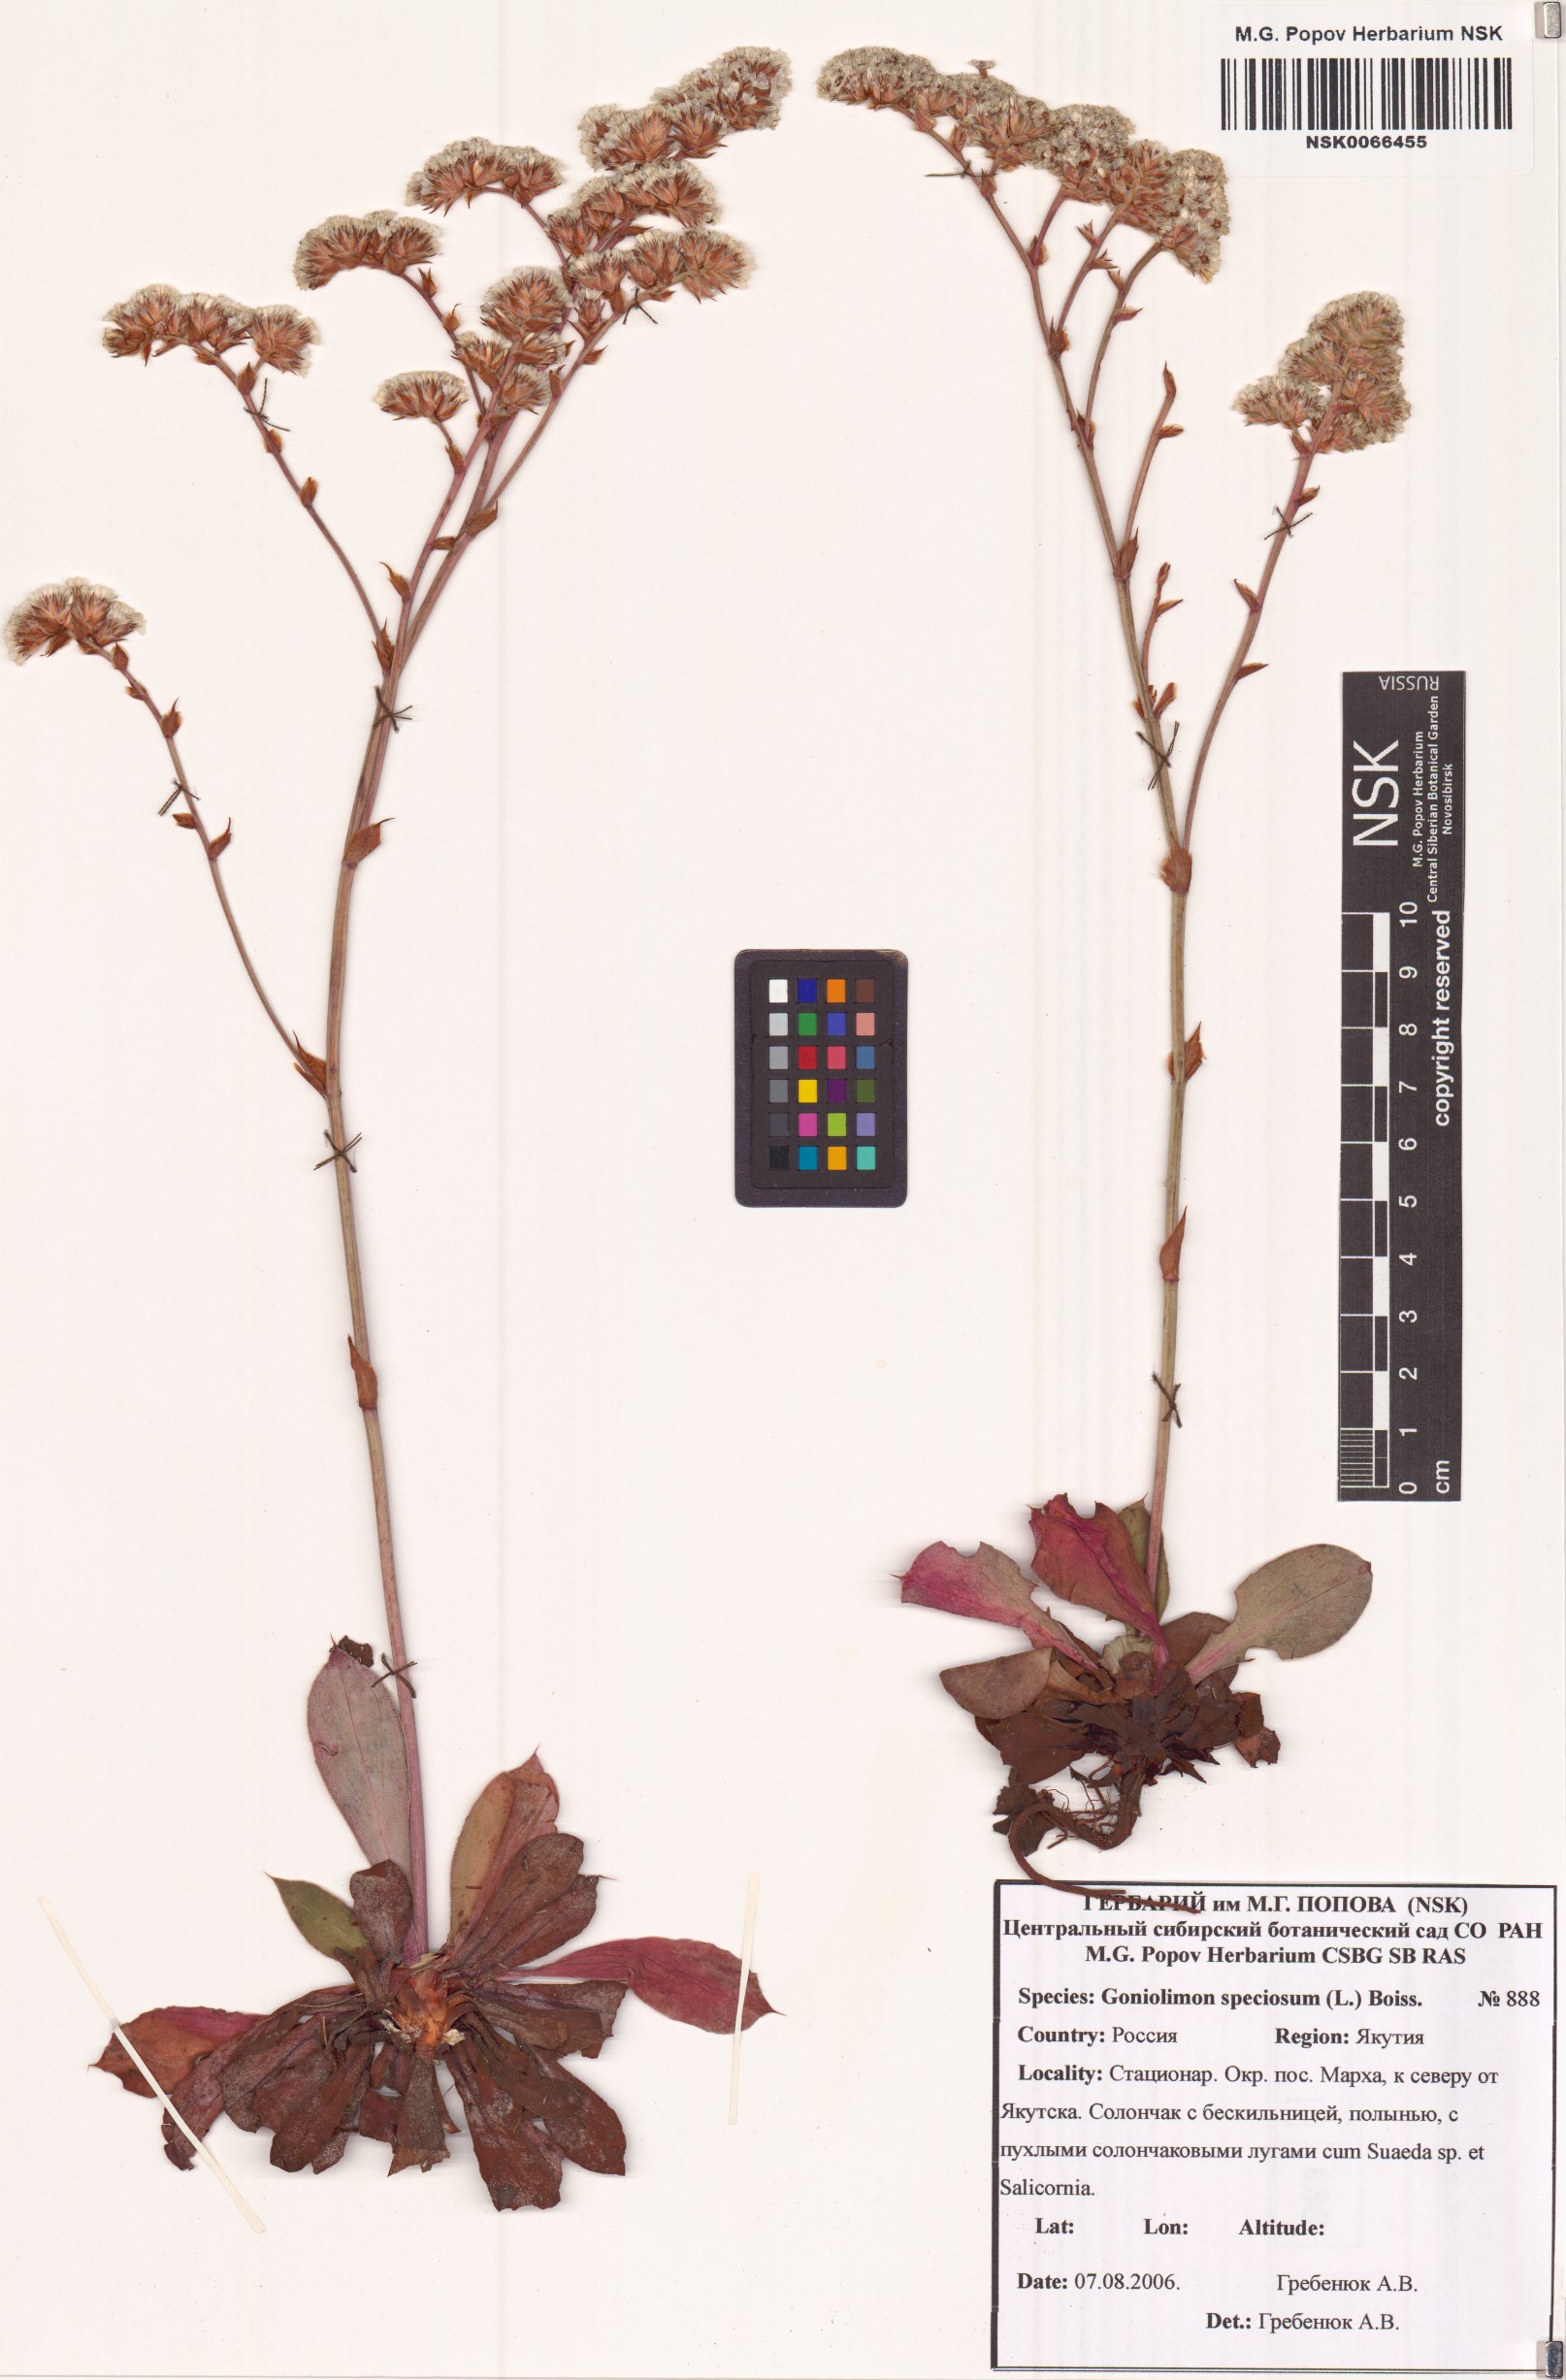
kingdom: Plantae
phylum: Tracheophyta
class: Magnoliopsida
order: Caryophyllales
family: Plumbaginaceae
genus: Goniolimon
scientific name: Goniolimon speciosum
